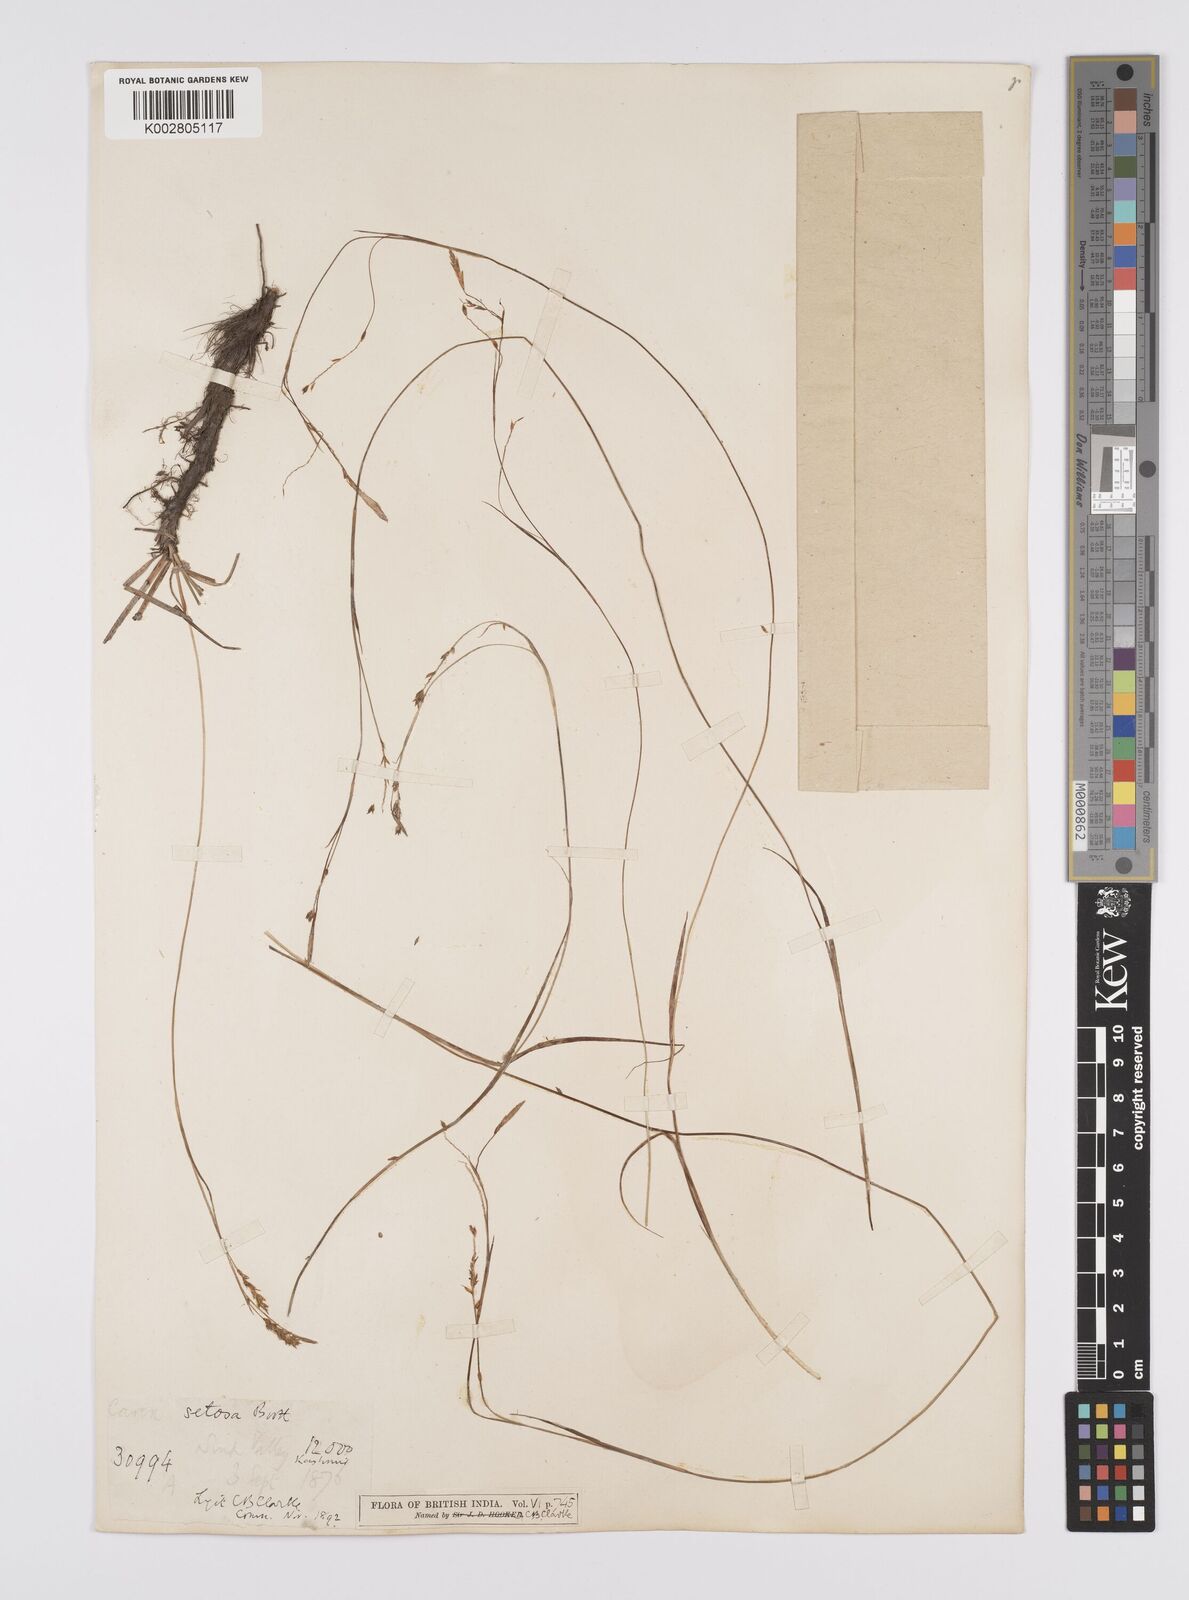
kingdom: Plantae
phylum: Tracheophyta
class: Liliopsida
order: Poales
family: Cyperaceae
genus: Carex
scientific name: Carex setosa
